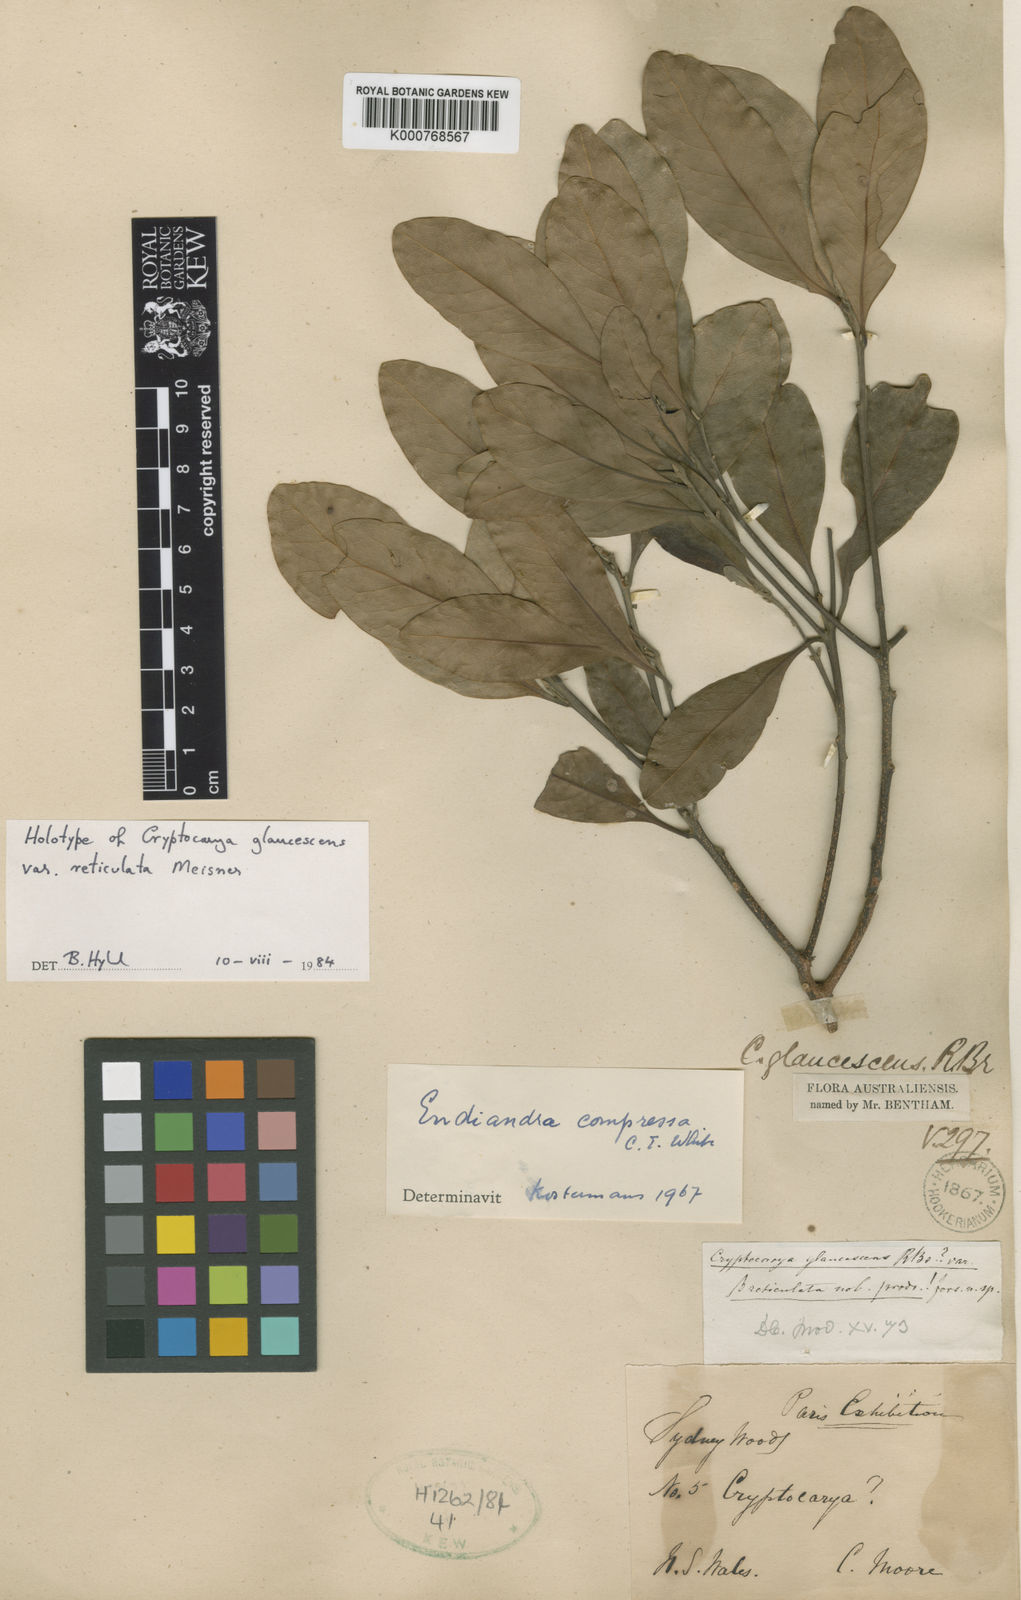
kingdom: Plantae
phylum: Tracheophyta
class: Magnoliopsida
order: Laurales
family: Lauraceae
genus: Endiandra
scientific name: Endiandra compressa
